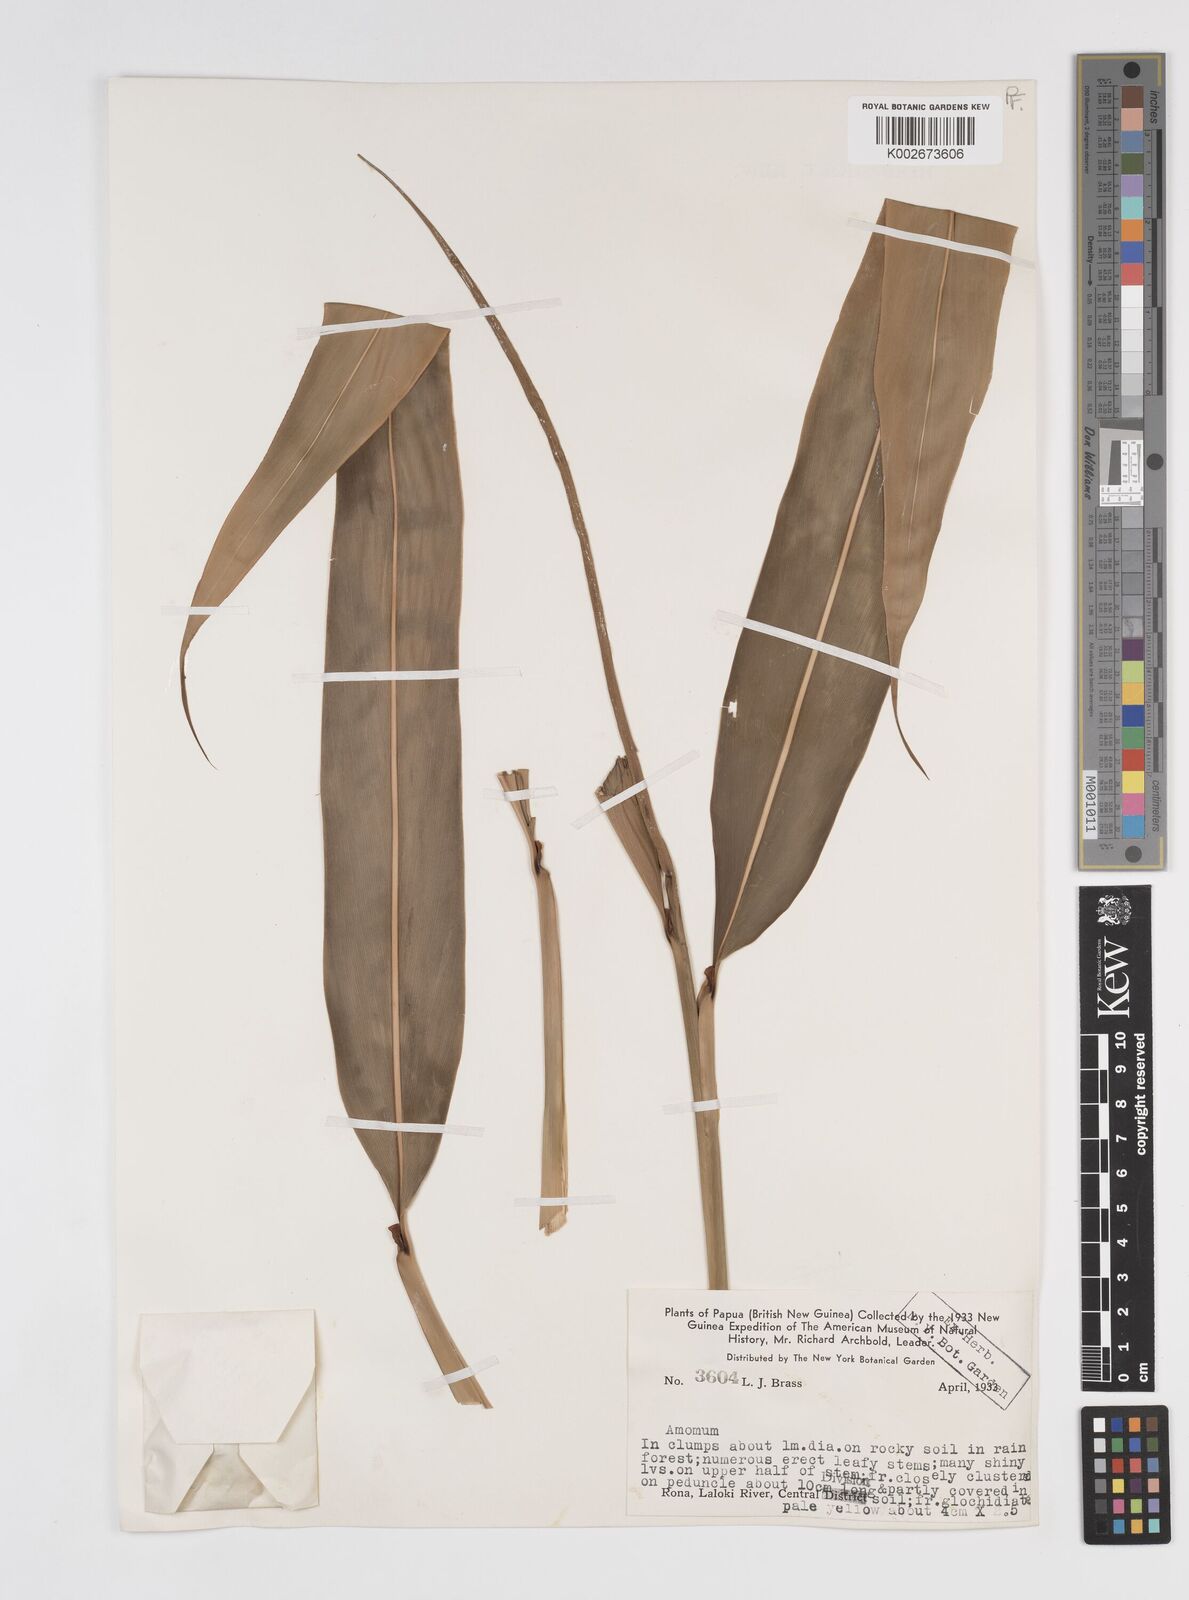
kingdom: Plantae
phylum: Tracheophyta
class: Liliopsida
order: Zingiberales
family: Zingiberaceae
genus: Amomum
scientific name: Amomum
